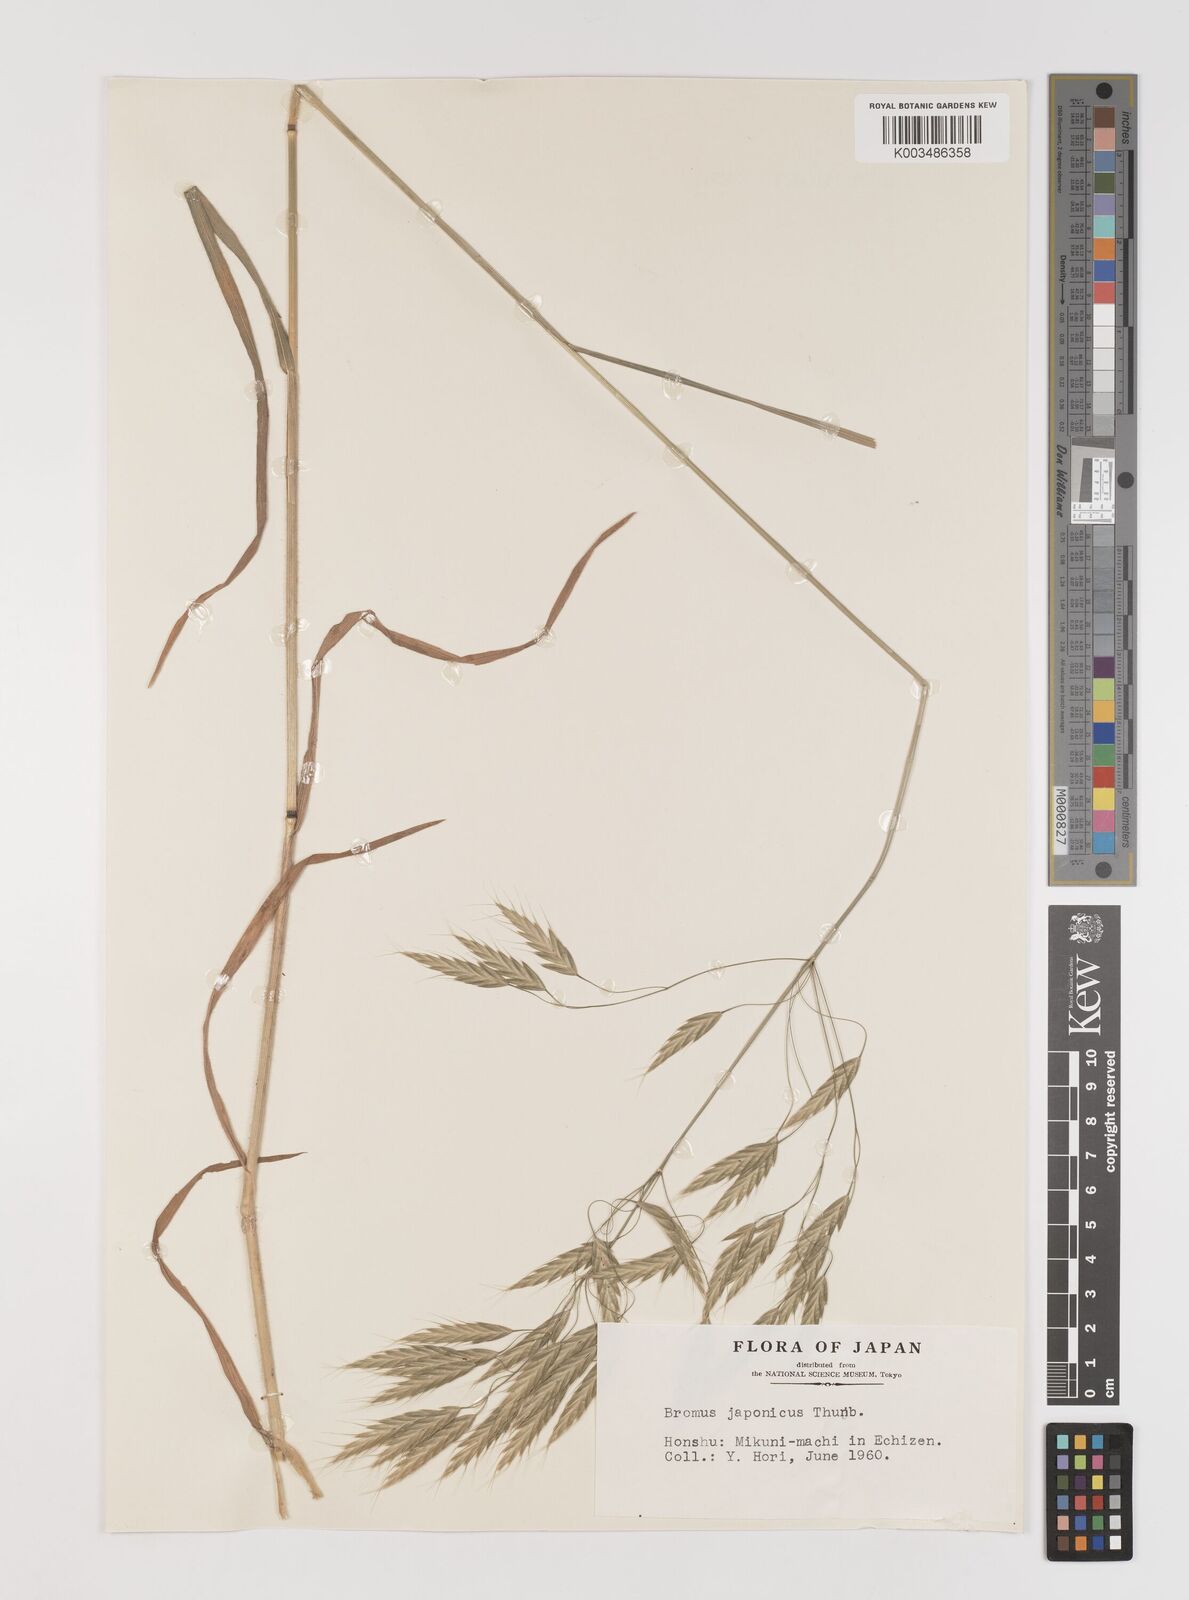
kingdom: Plantae
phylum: Tracheophyta
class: Liliopsida
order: Poales
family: Poaceae
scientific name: Poaceae
